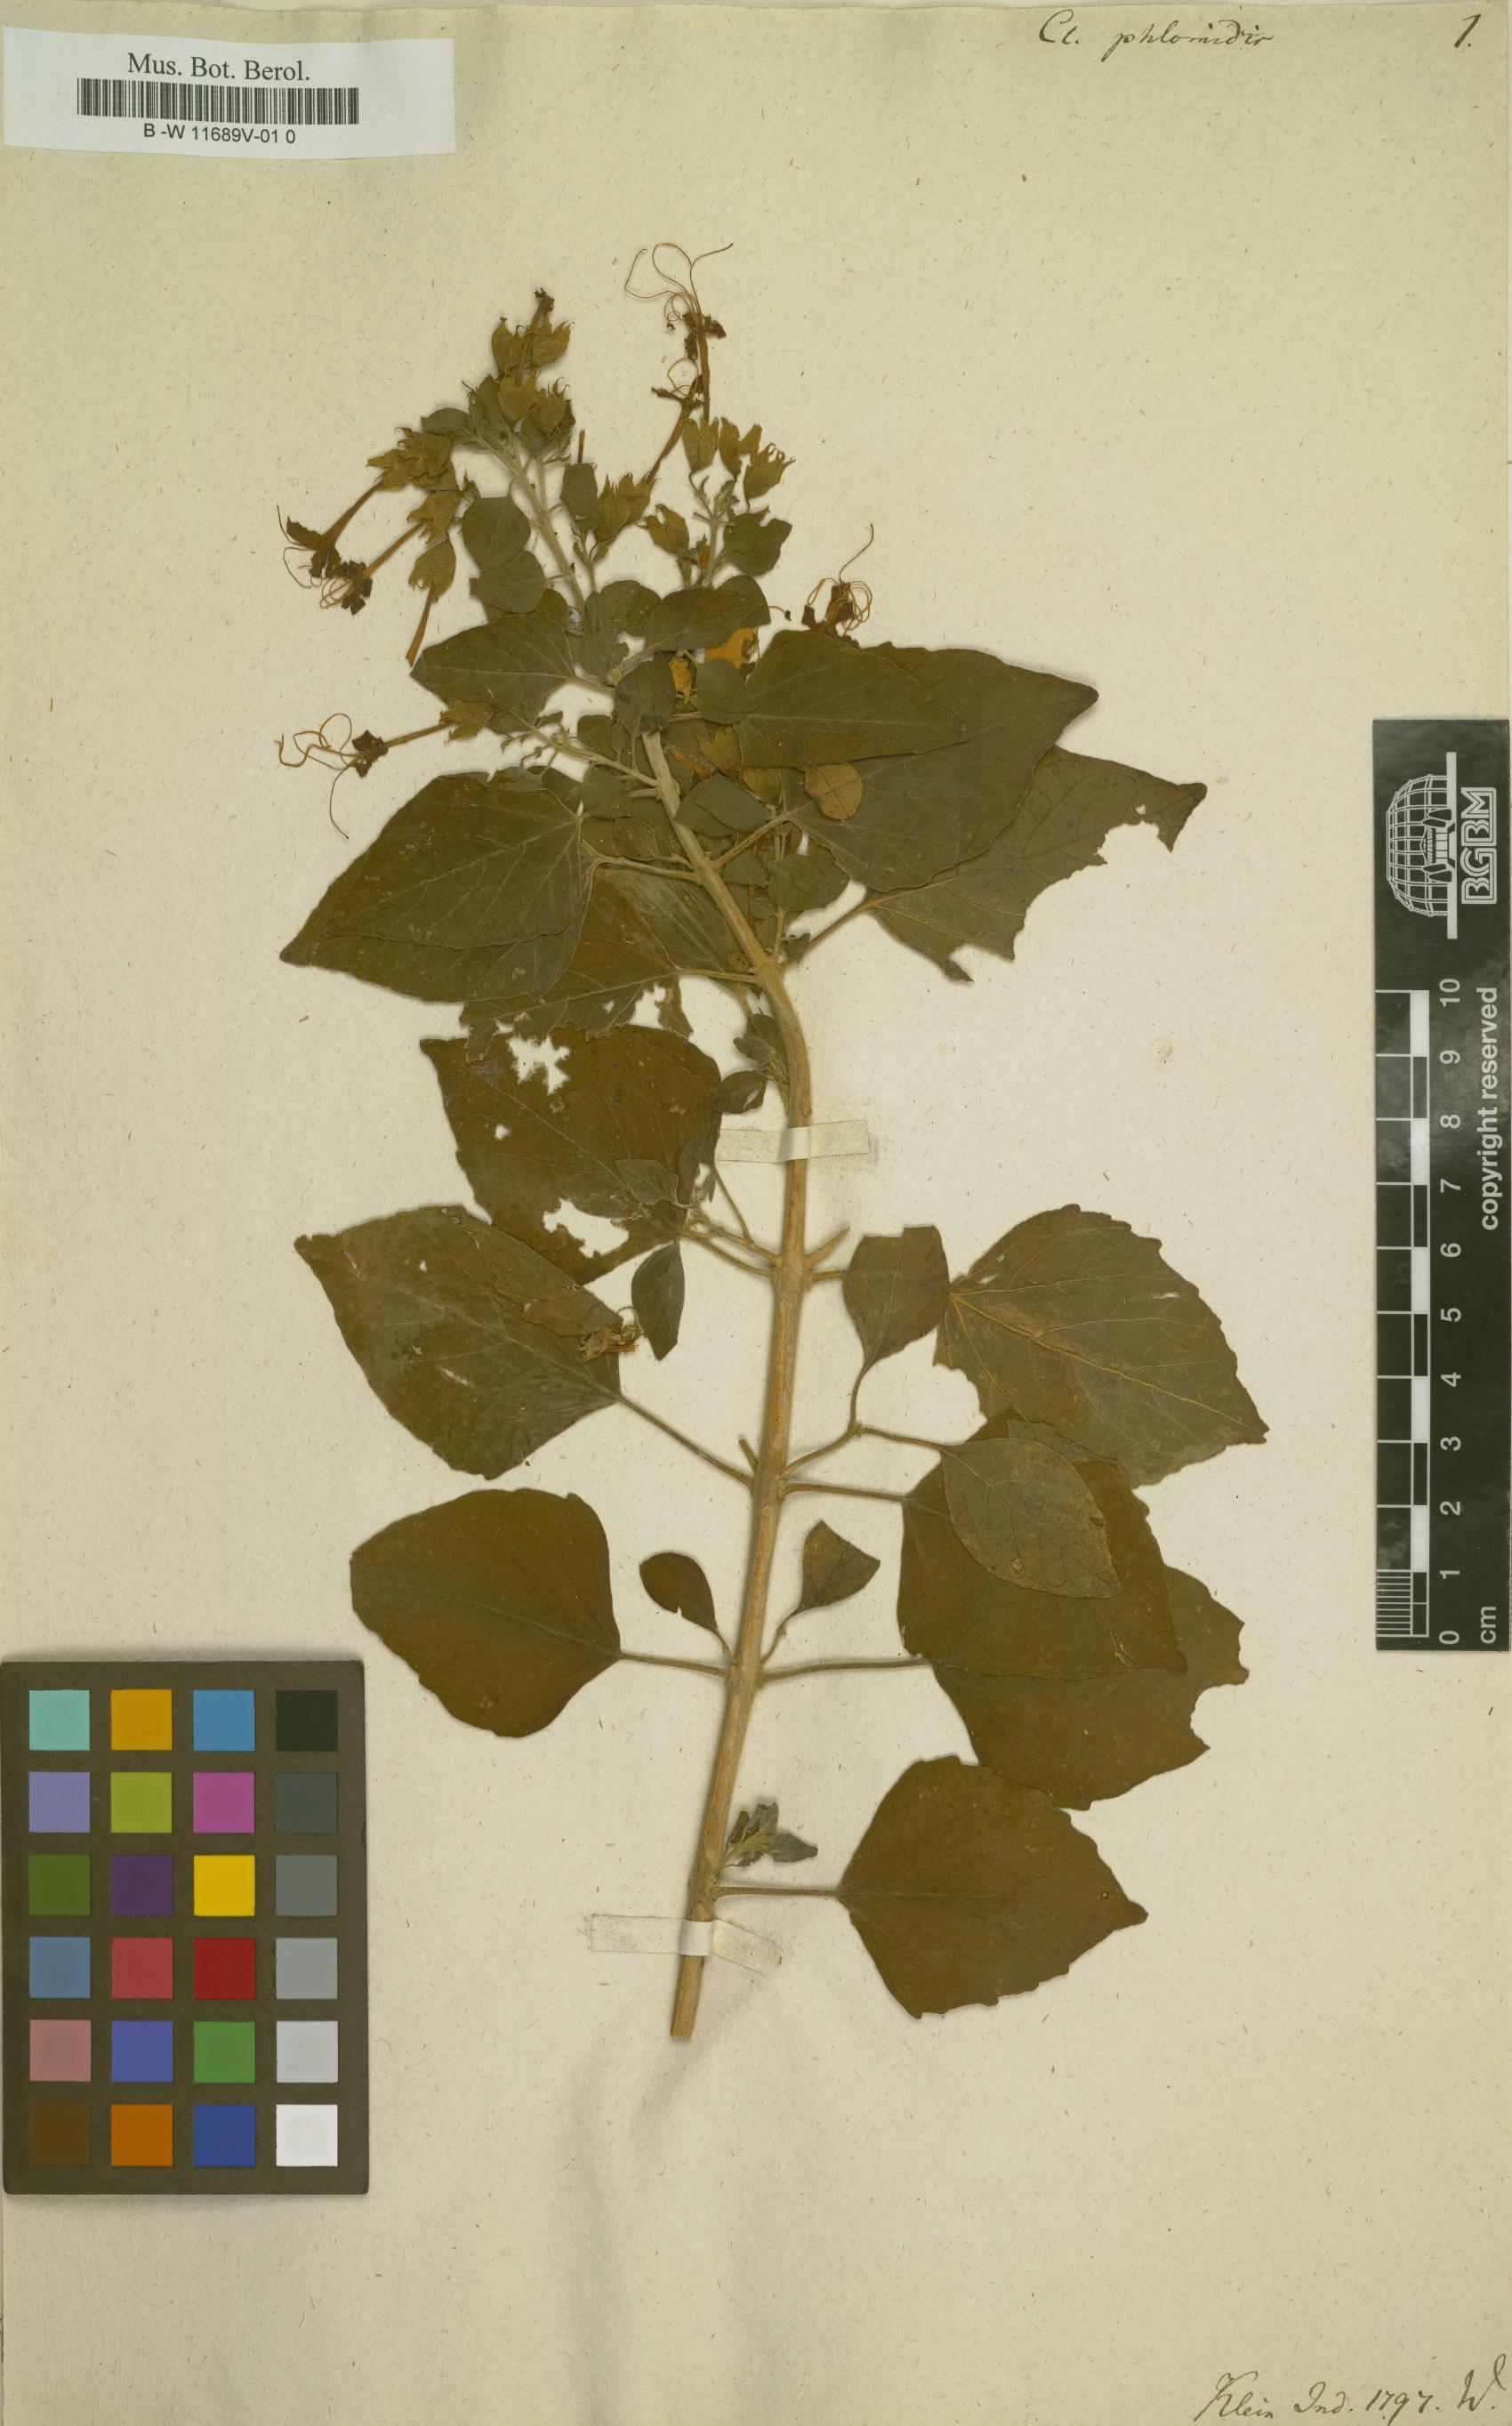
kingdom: Plantae
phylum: Tracheophyta
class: Magnoliopsida
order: Lamiales
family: Lamiaceae
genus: Clerodendrum
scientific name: Clerodendrum phlomoides
